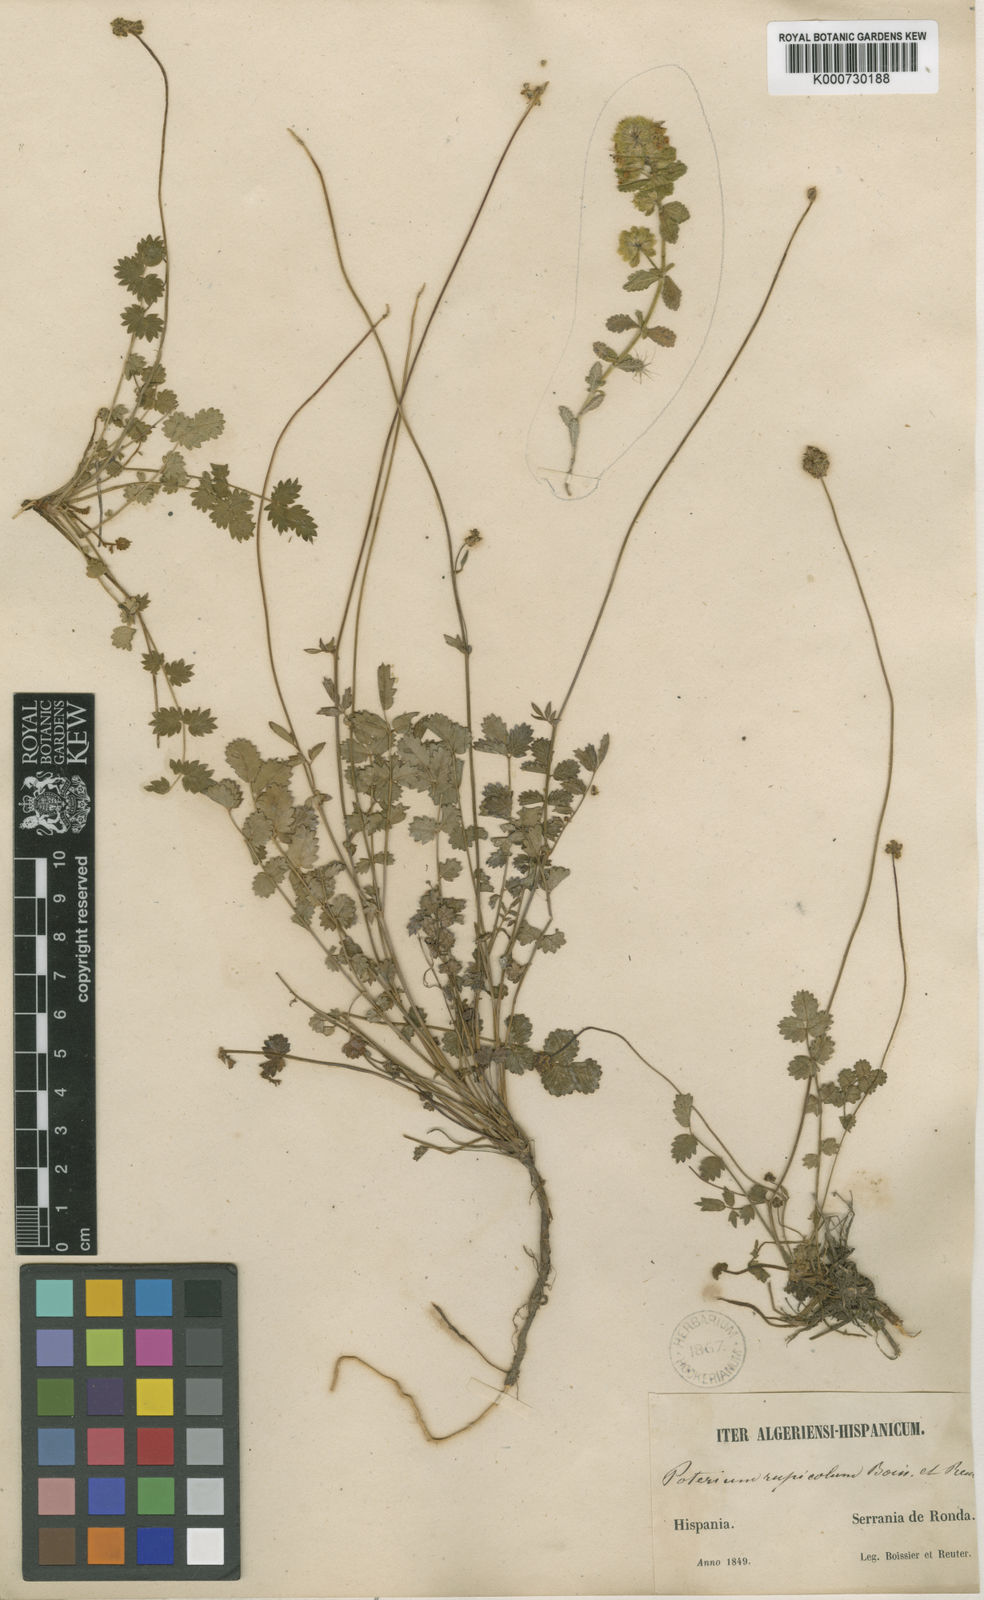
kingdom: Plantae
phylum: Tracheophyta
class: Magnoliopsida
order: Rosales
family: Rosaceae
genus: Poterium
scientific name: Poterium sanguisorba
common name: Salad burnet
